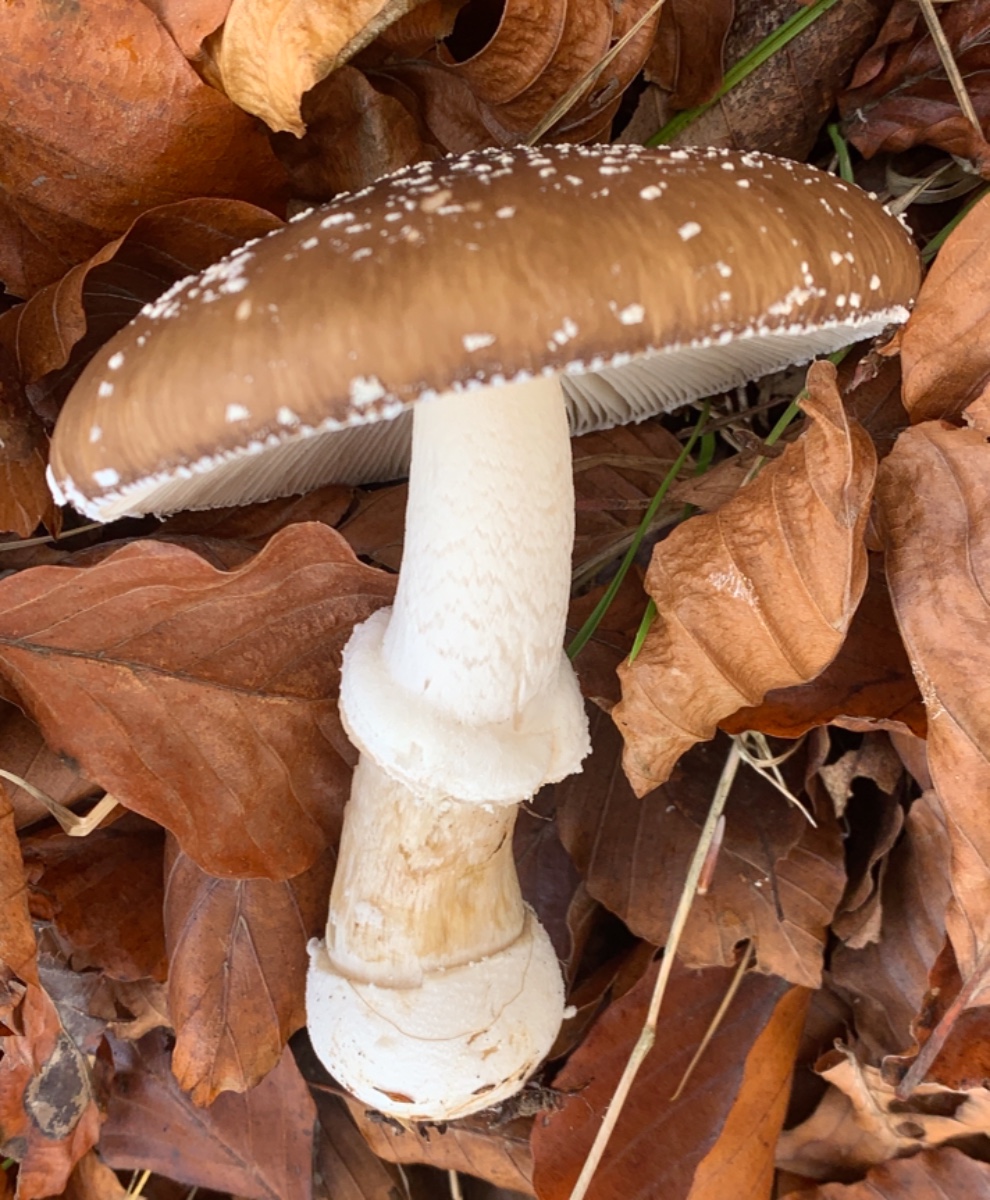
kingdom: Fungi
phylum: Basidiomycota
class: Agaricomycetes
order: Agaricales
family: Amanitaceae
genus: Amanita
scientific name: Amanita pantherina
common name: panter-fluesvamp
